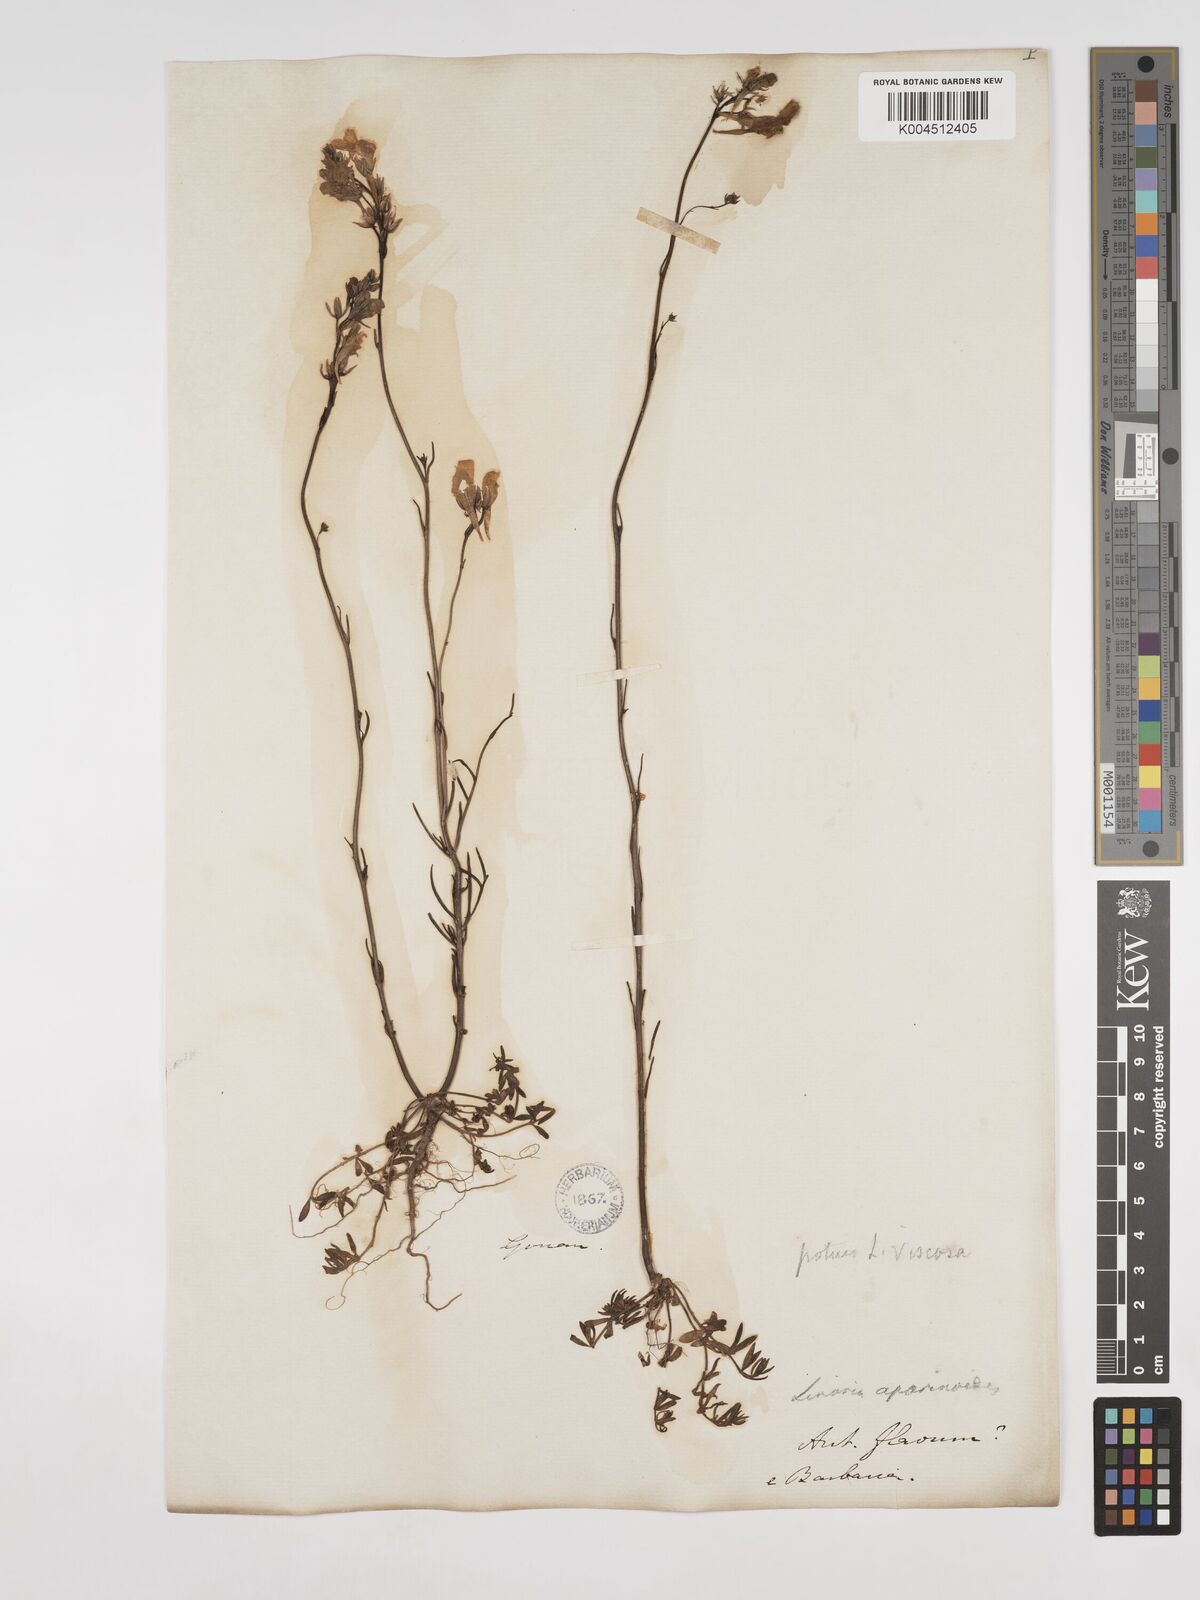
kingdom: Plantae
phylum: Tracheophyta
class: Magnoliopsida
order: Lamiales
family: Plantaginaceae
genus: Linaria
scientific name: Linaria multicaulis
